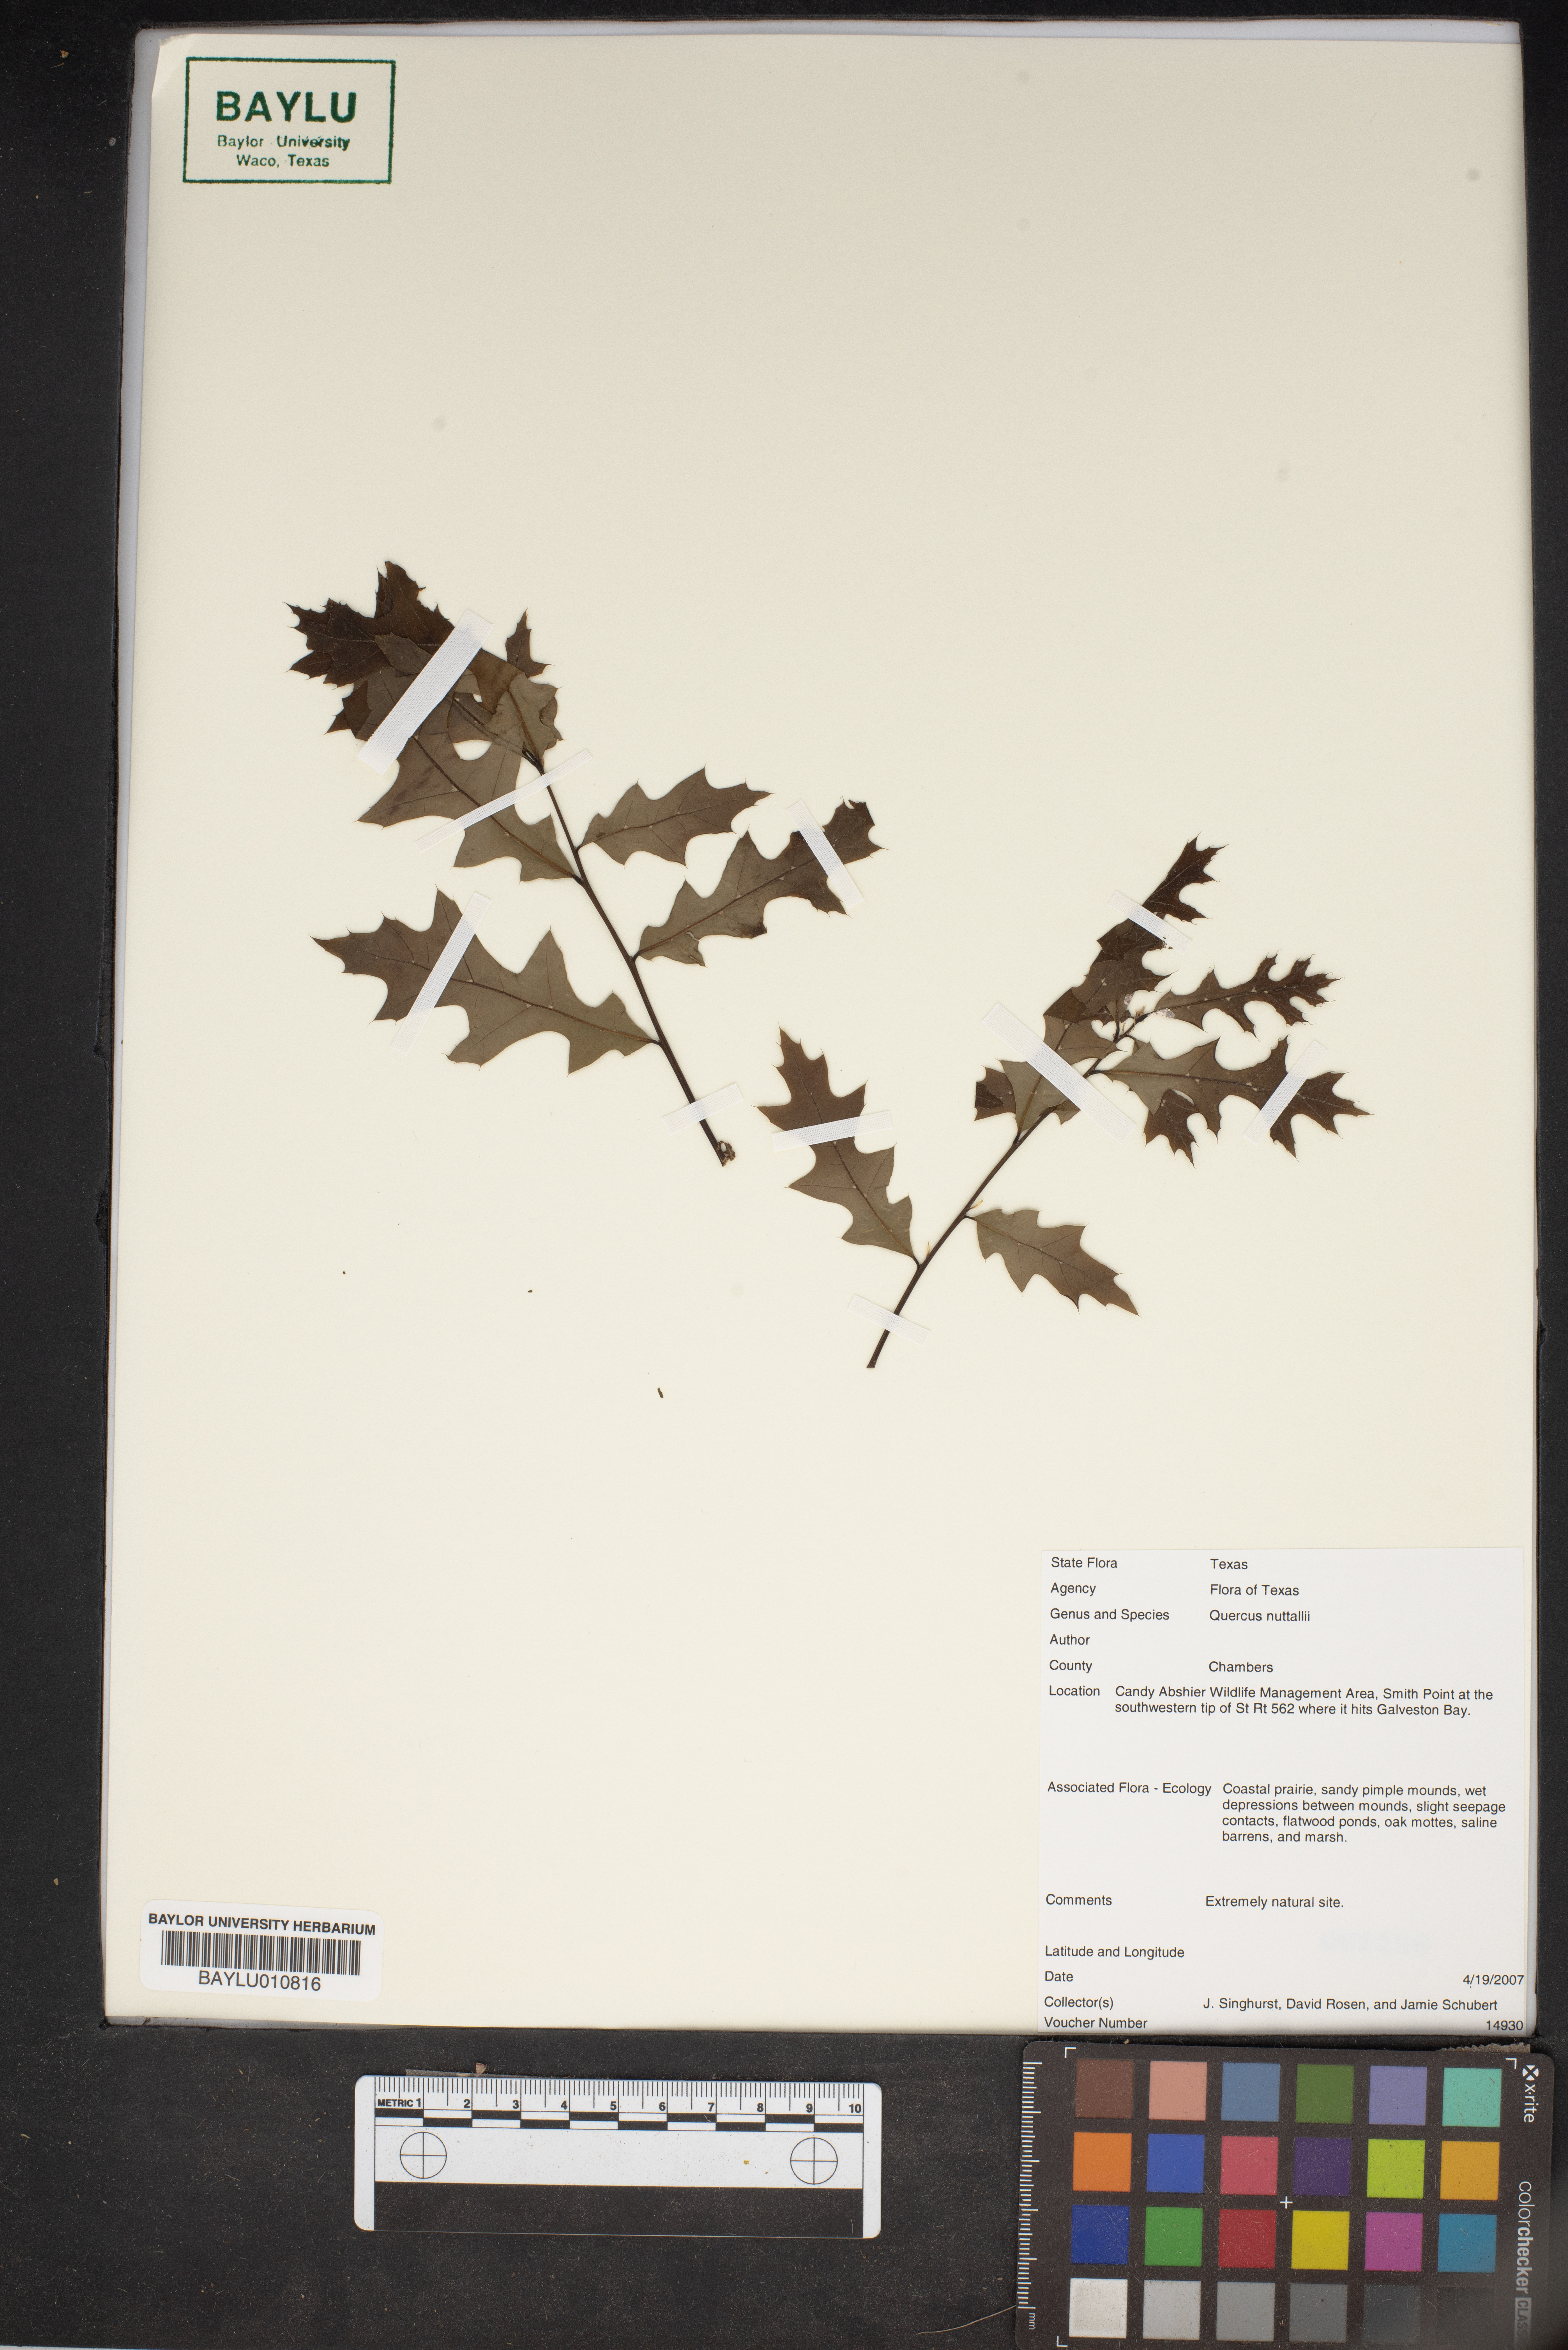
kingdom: Plantae
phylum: Tracheophyta
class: Magnoliopsida
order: Fagales
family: Fagaceae
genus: Quercus
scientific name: Quercus texana
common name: Nuttall oak
